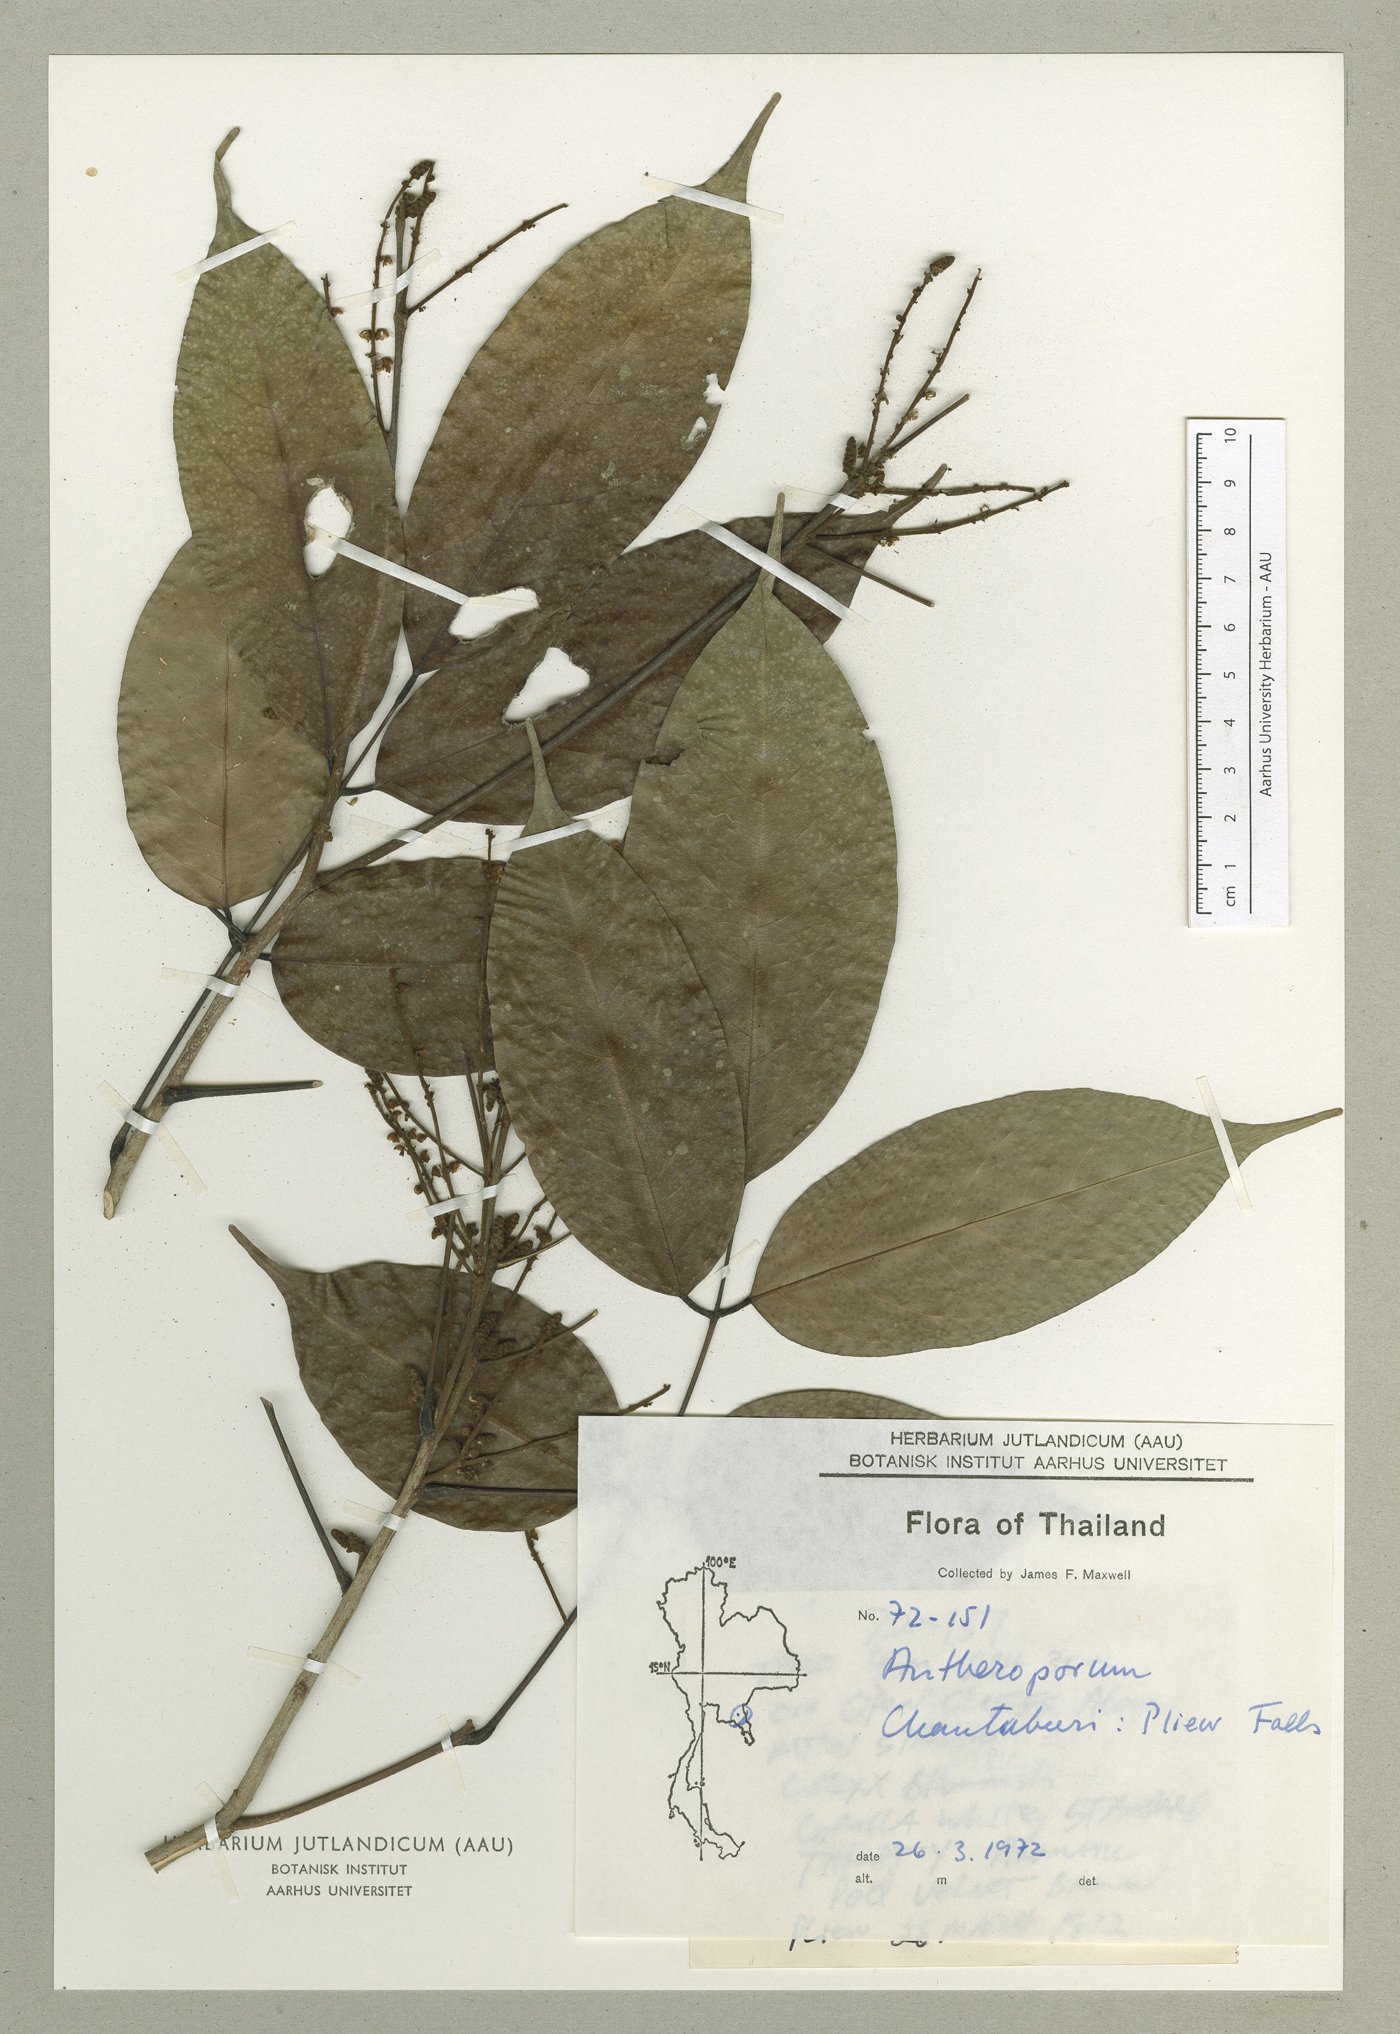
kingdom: Plantae
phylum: Tracheophyta
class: Magnoliopsida
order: Fabales
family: Fabaceae
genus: Antheroporum
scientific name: Antheroporum
